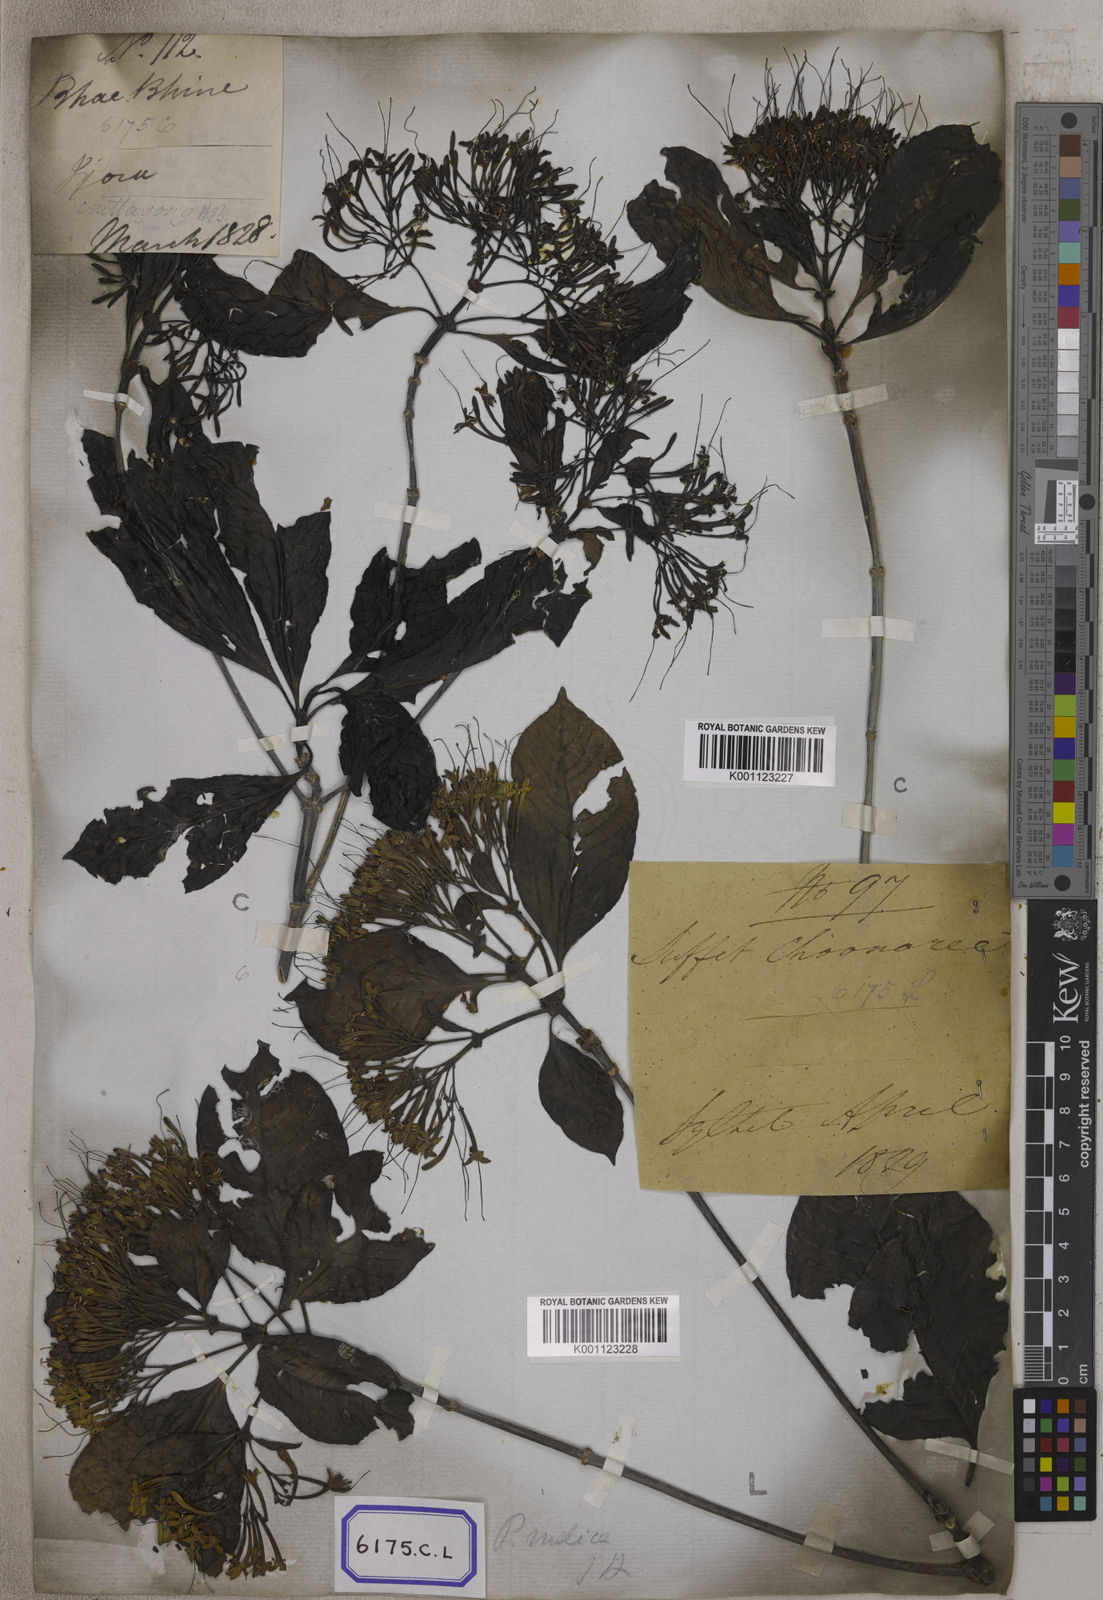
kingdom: Plantae
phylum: Tracheophyta
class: Magnoliopsida
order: Gentianales
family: Rubiaceae
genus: Pavetta
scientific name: Pavetta indica
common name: Indian pavetta
